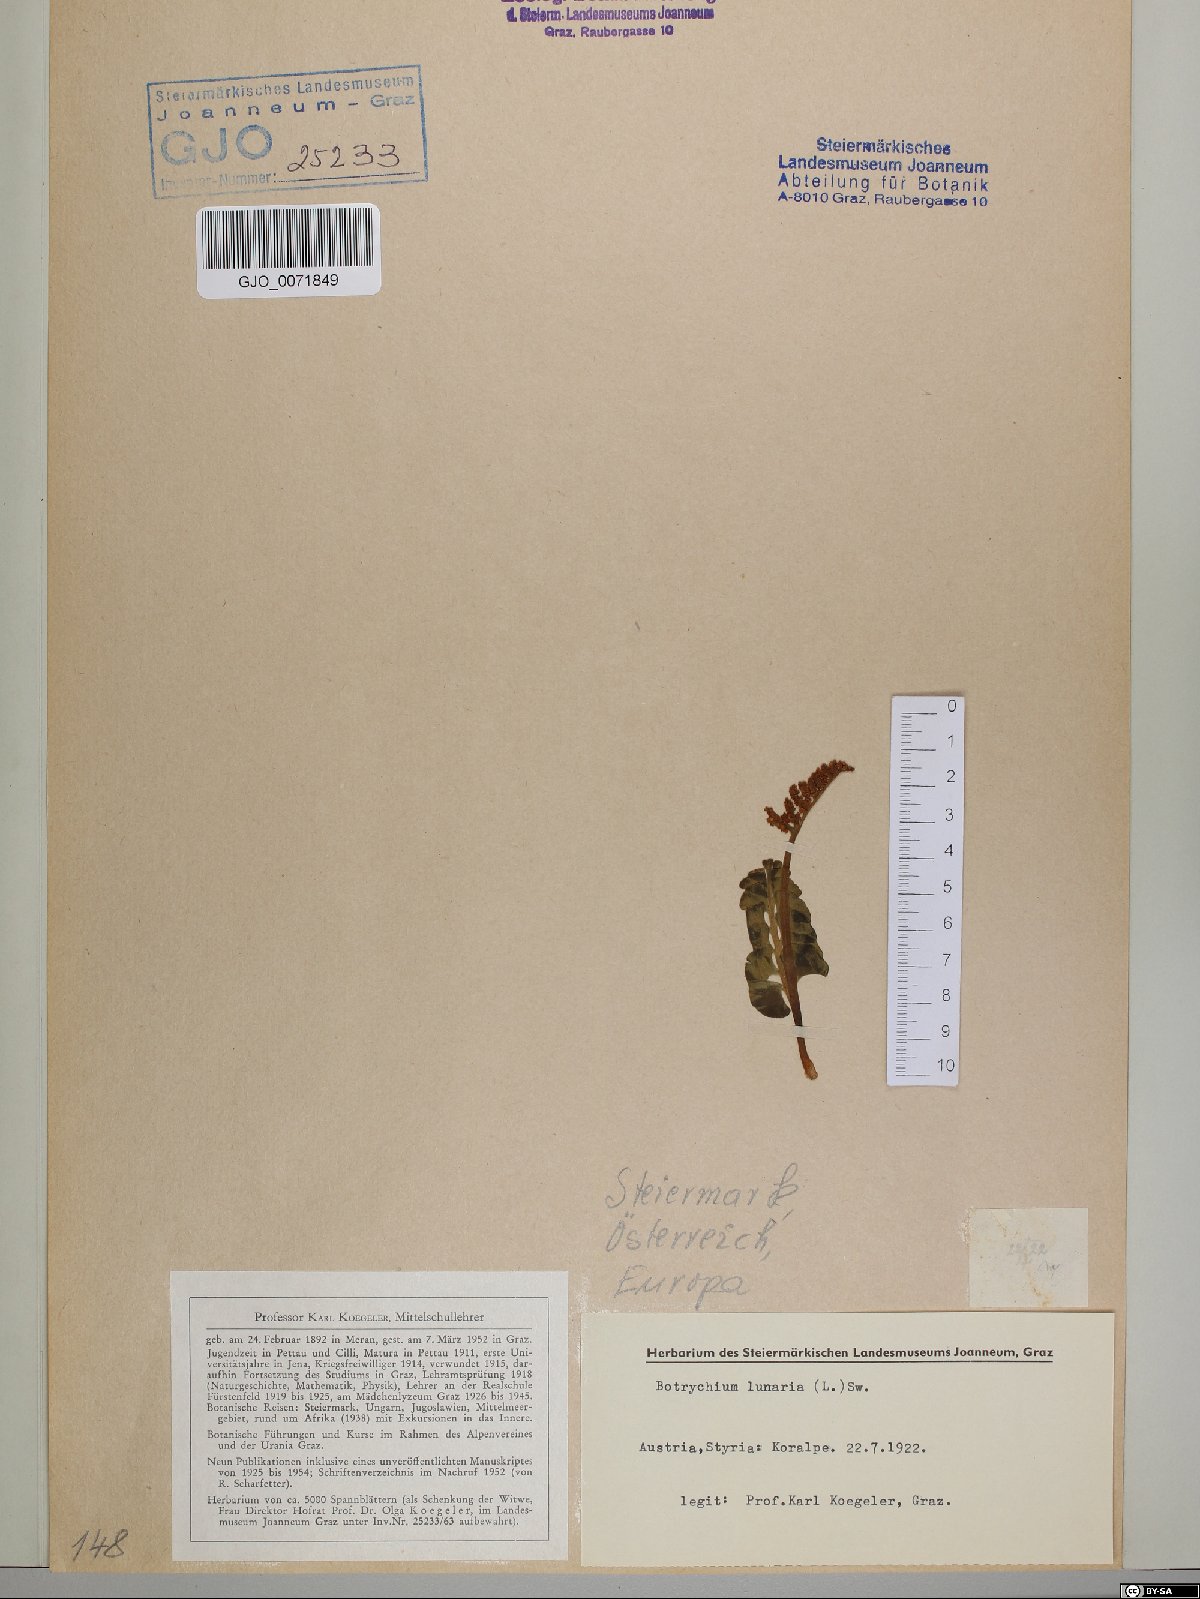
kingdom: Plantae
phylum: Tracheophyta
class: Polypodiopsida
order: Ophioglossales
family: Ophioglossaceae
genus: Botrychium
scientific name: Botrychium lunaria
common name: Moonwort
